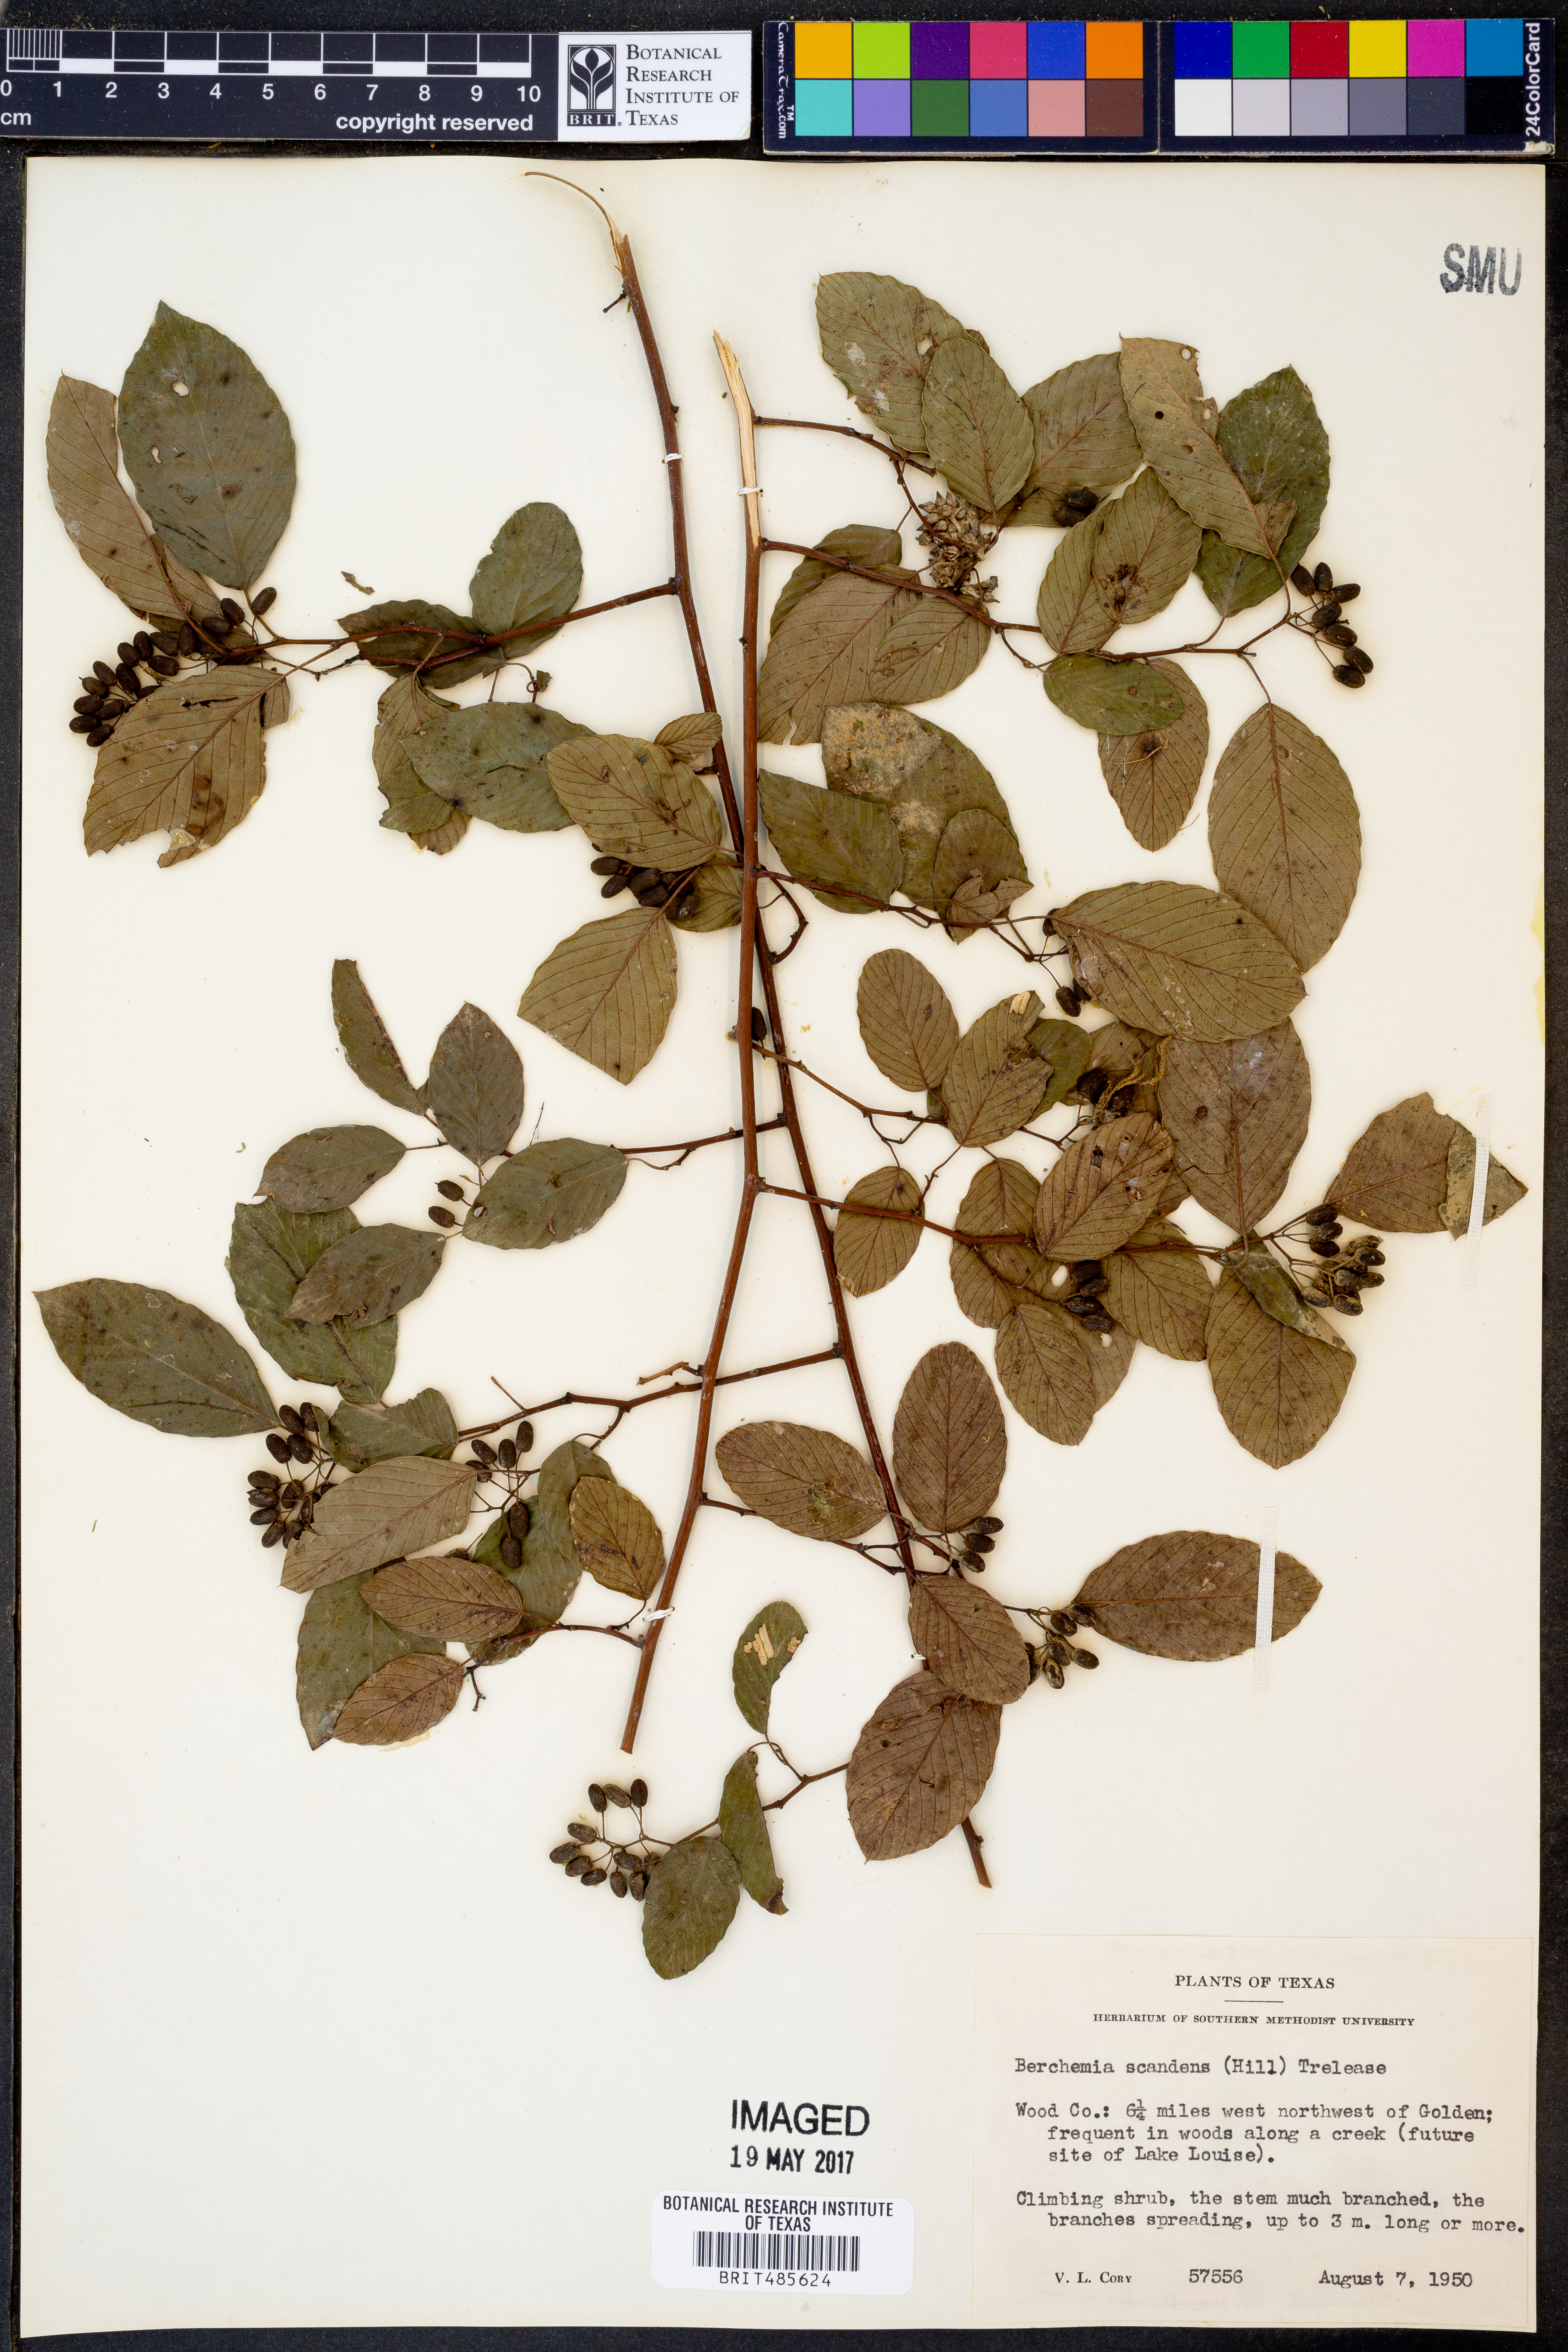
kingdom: Plantae
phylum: Tracheophyta
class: Magnoliopsida
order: Rosales
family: Rhamnaceae
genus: Berchemia
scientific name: Berchemia scandens
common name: Supplejack
